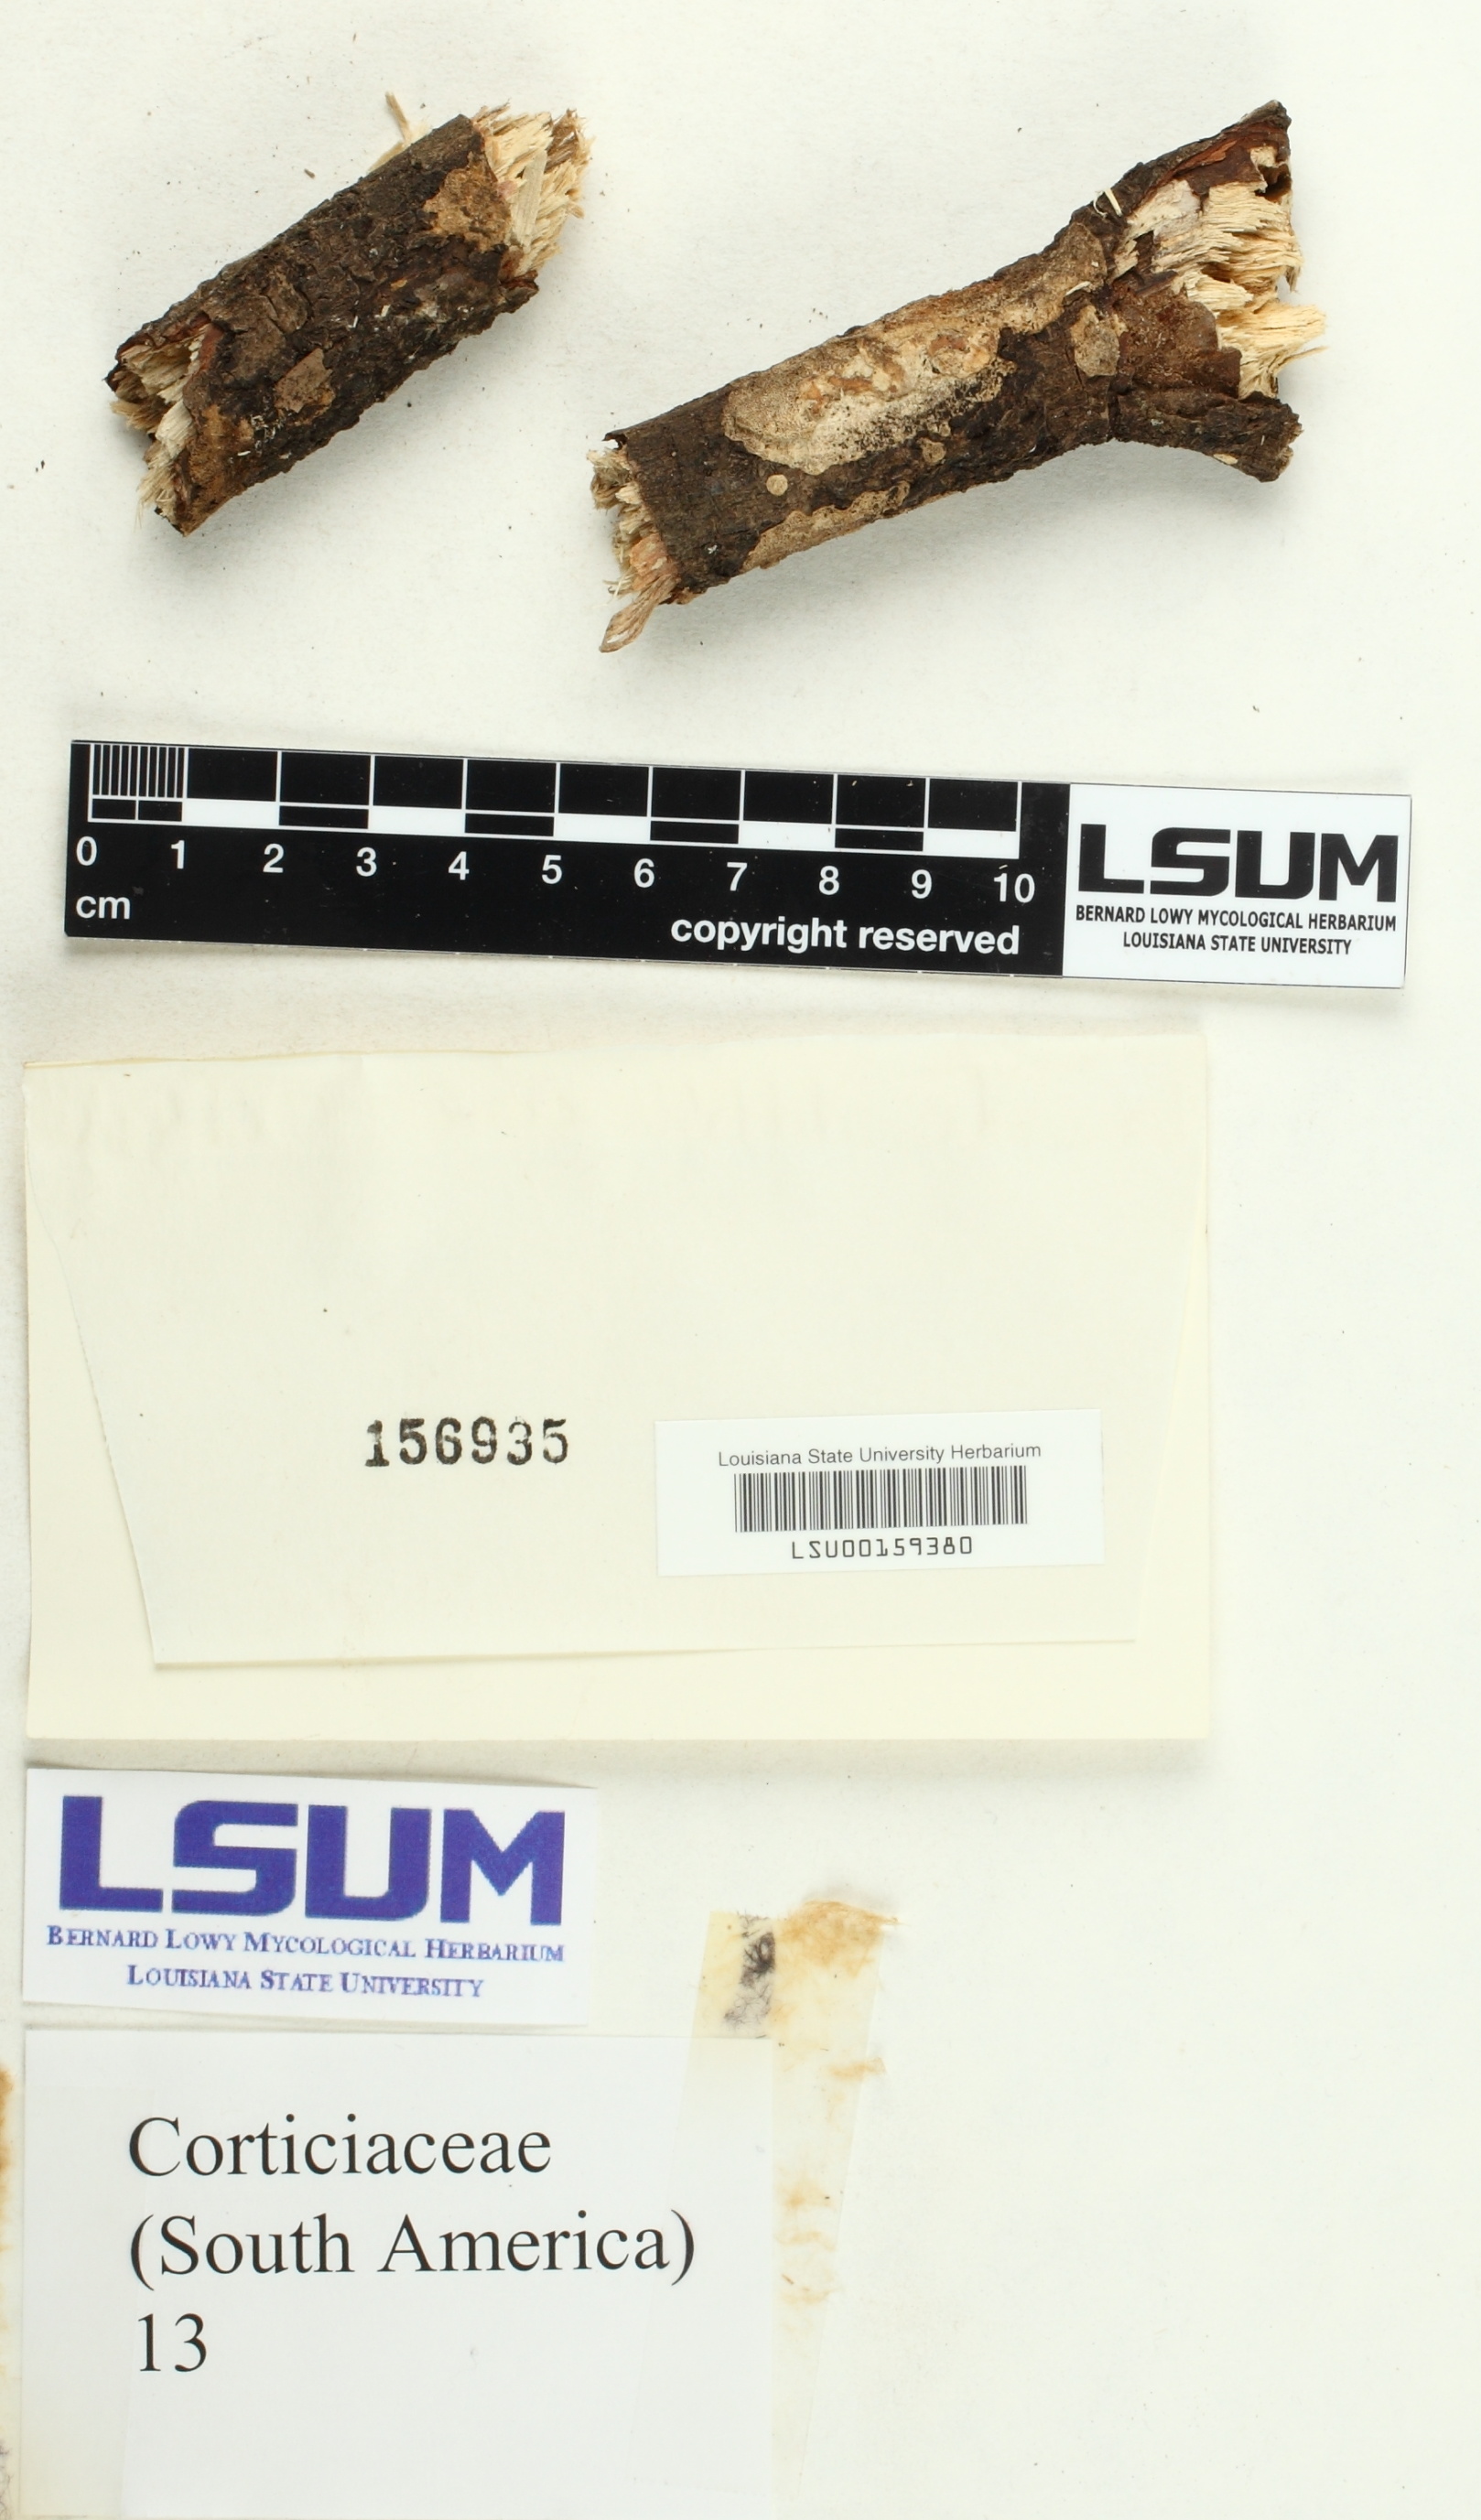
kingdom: Fungi
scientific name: Fungi
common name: Fungi
